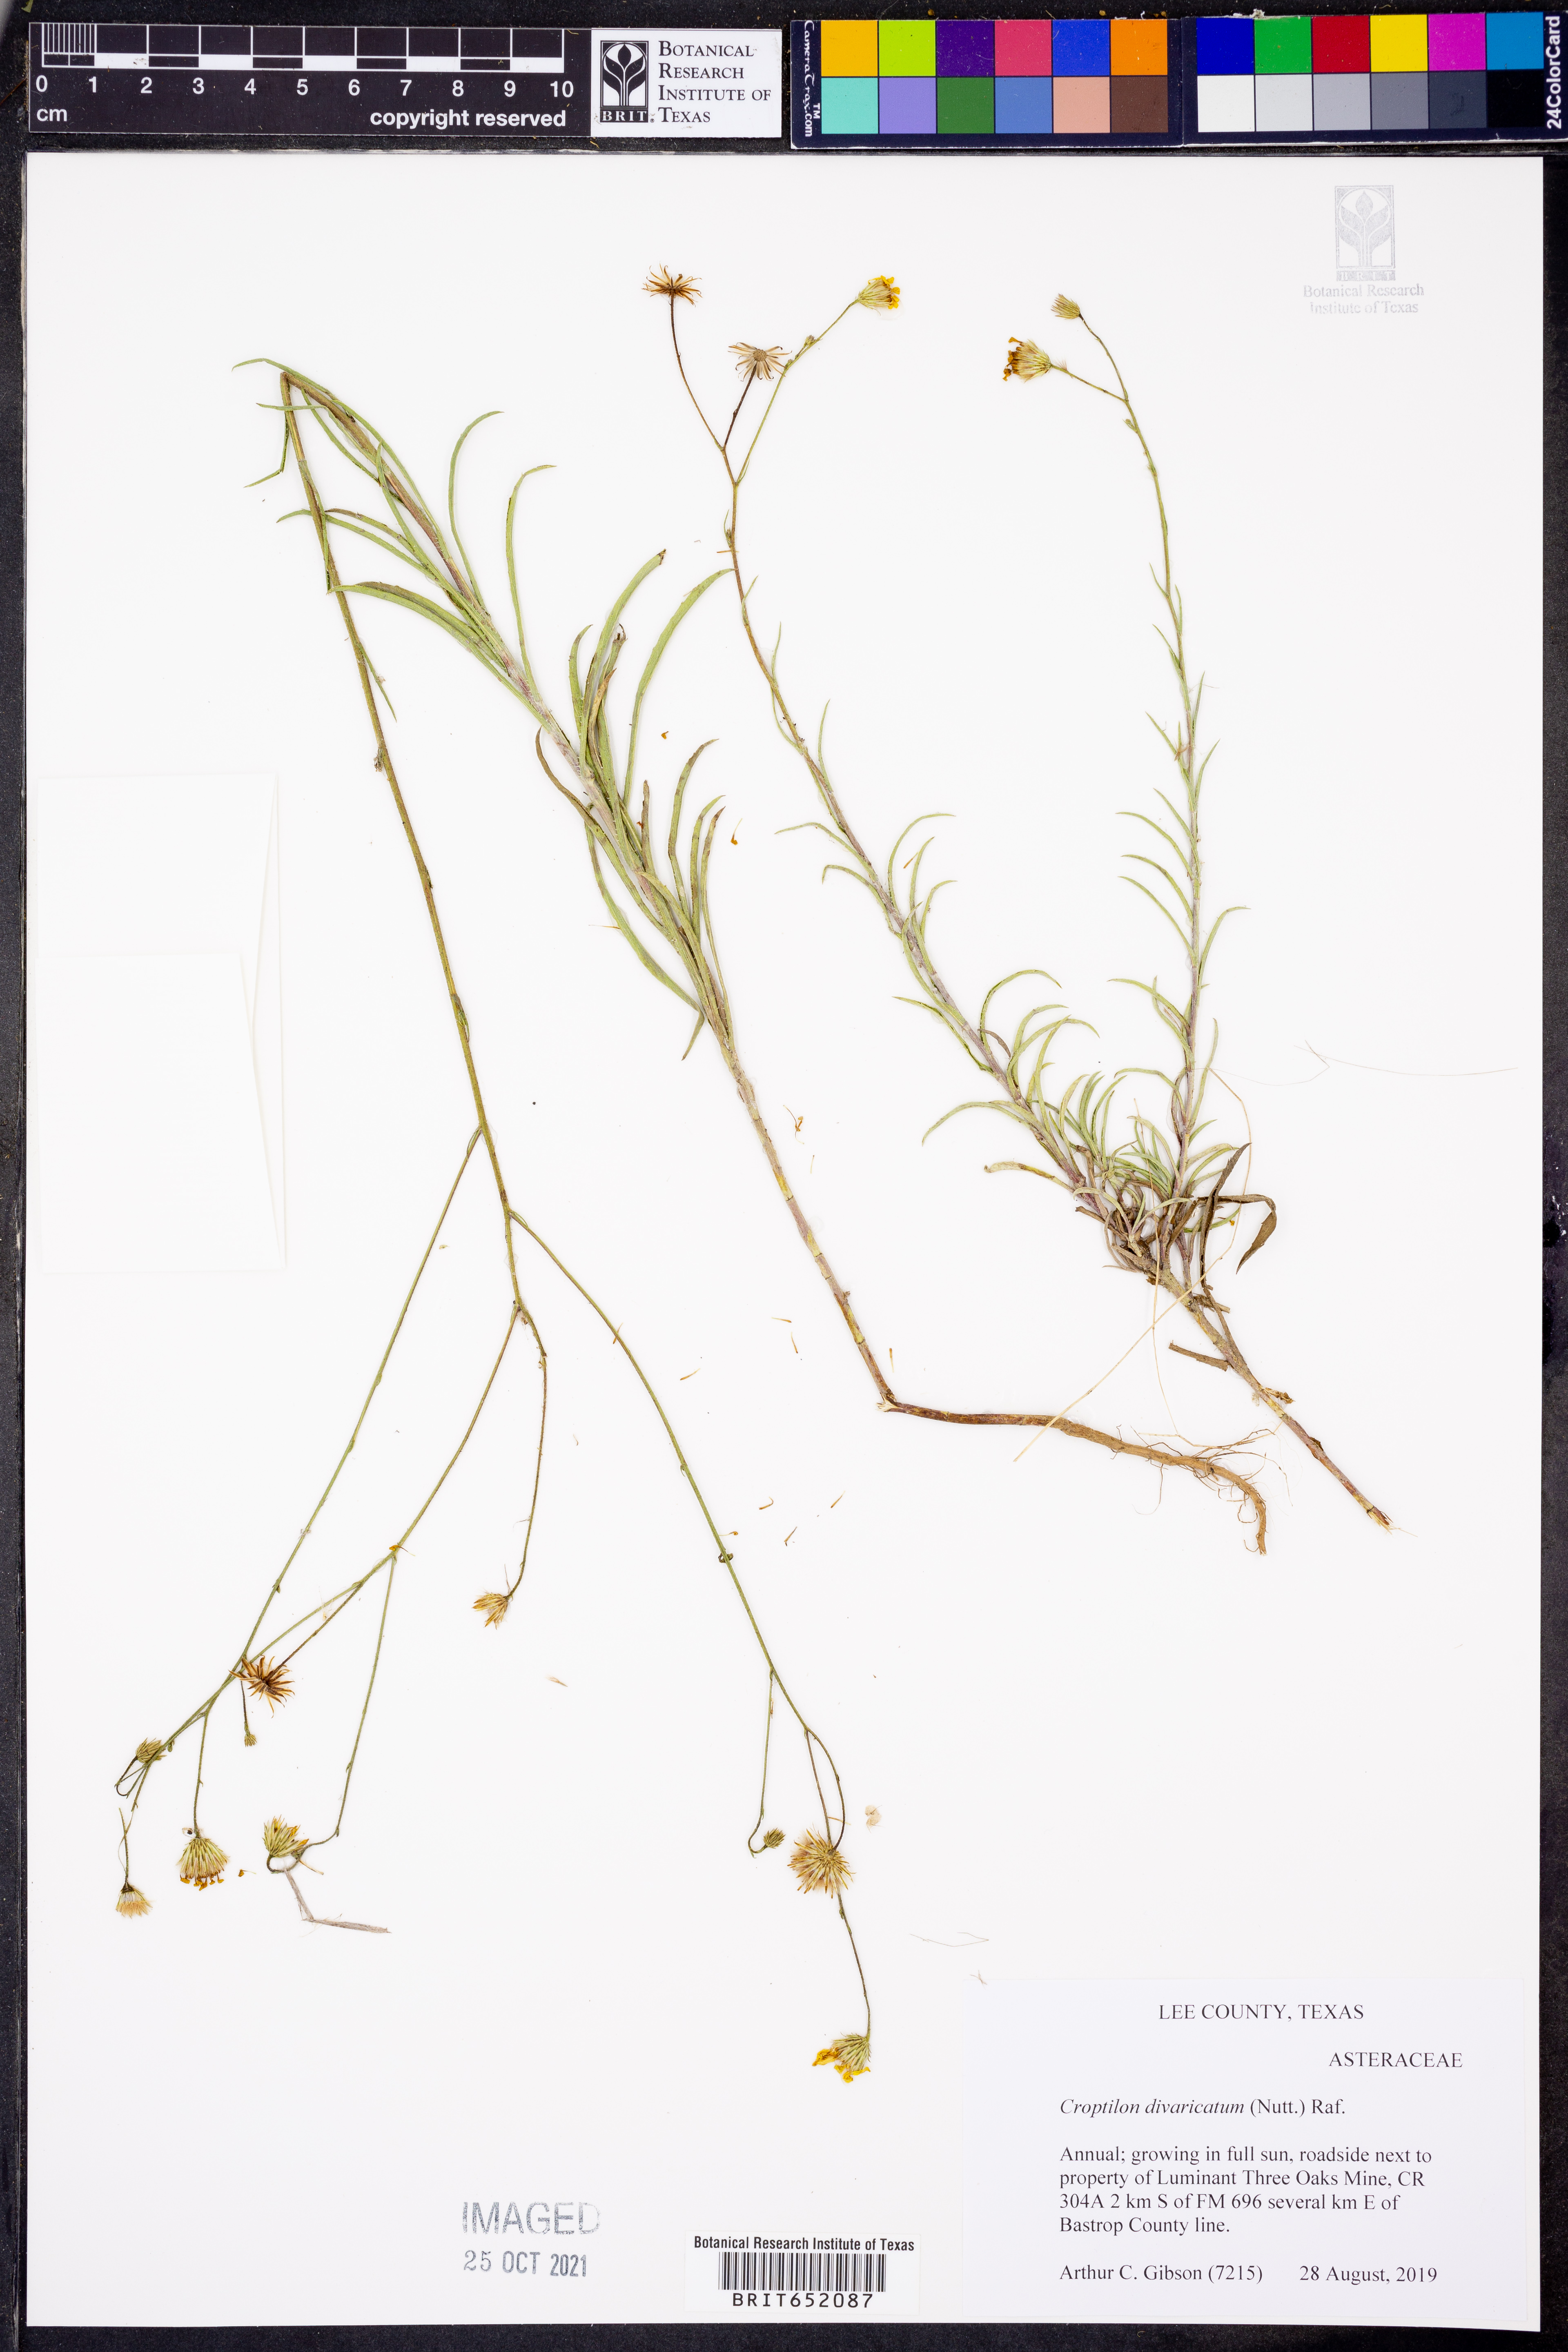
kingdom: Plantae
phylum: Tracheophyta
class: Magnoliopsida
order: Asterales
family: Asteraceae
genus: Croptilon
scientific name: Croptilon divaricatum
